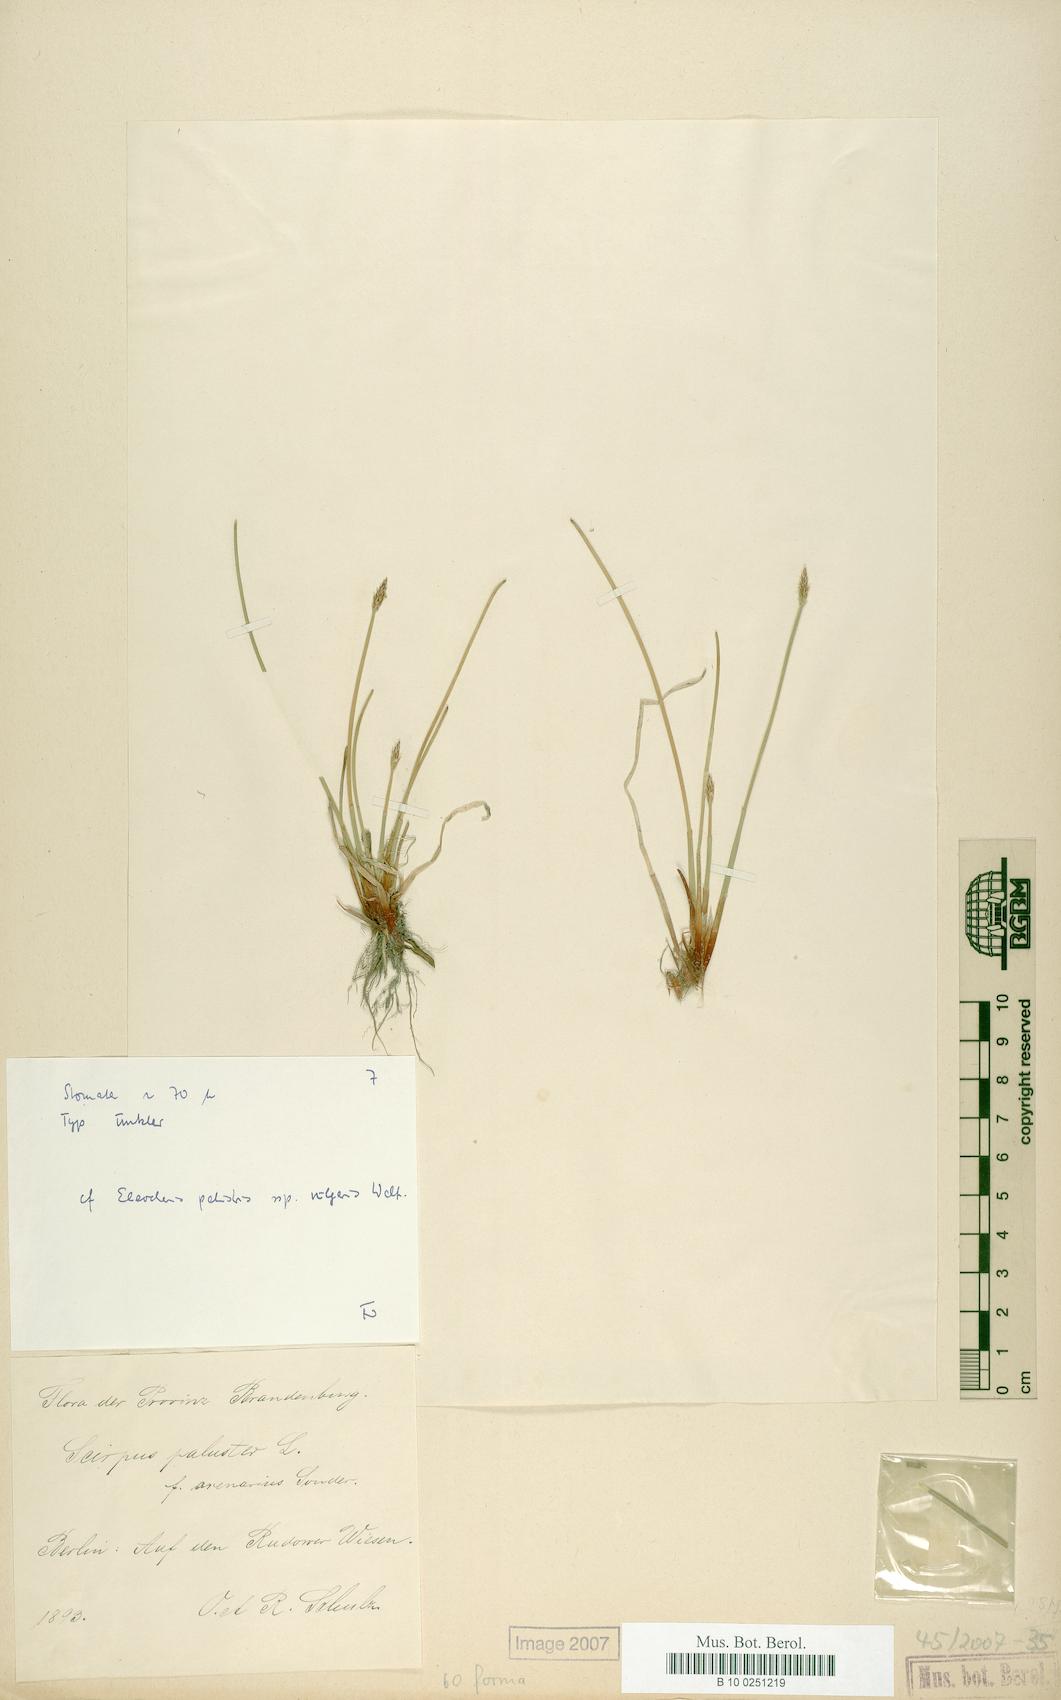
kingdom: Plantae
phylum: Tracheophyta
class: Liliopsida
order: Poales
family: Cyperaceae
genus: Eleocharis
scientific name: Eleocharis palustris
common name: Common spike-rush
